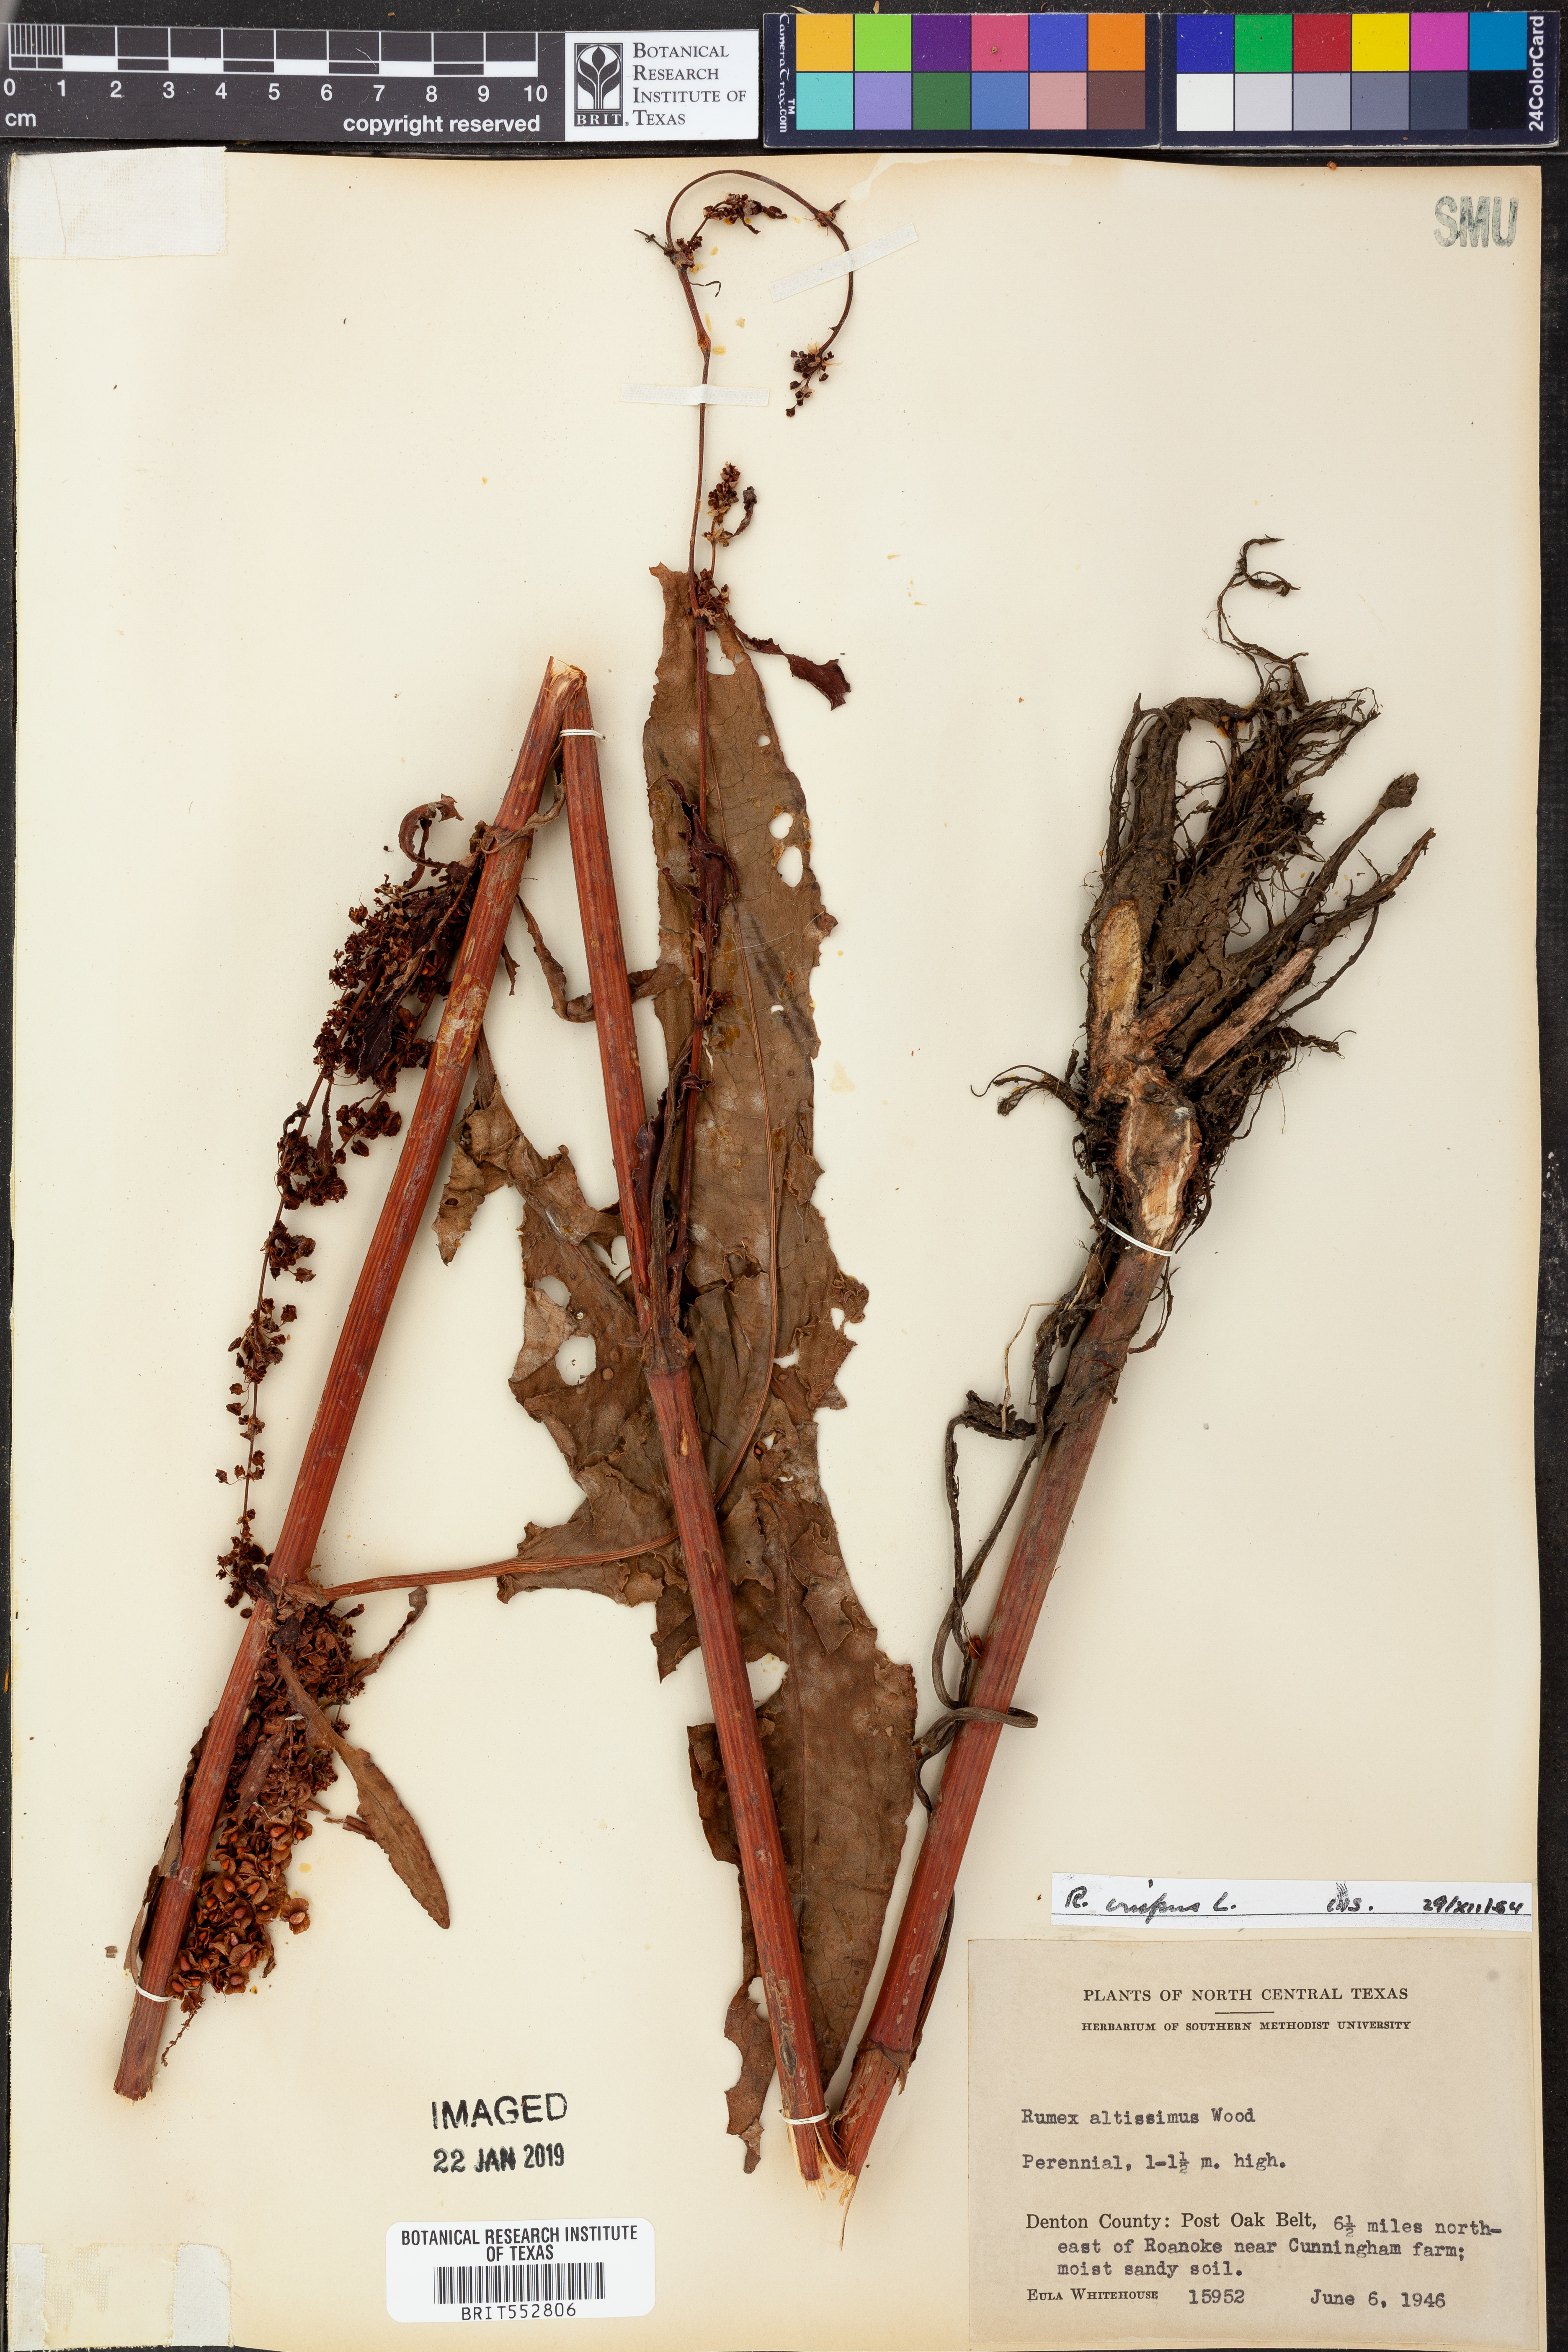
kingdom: Plantae
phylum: Tracheophyta
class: Magnoliopsida
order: Caryophyllales
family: Polygonaceae
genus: Rumex
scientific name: Rumex crispus
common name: Curled dock
